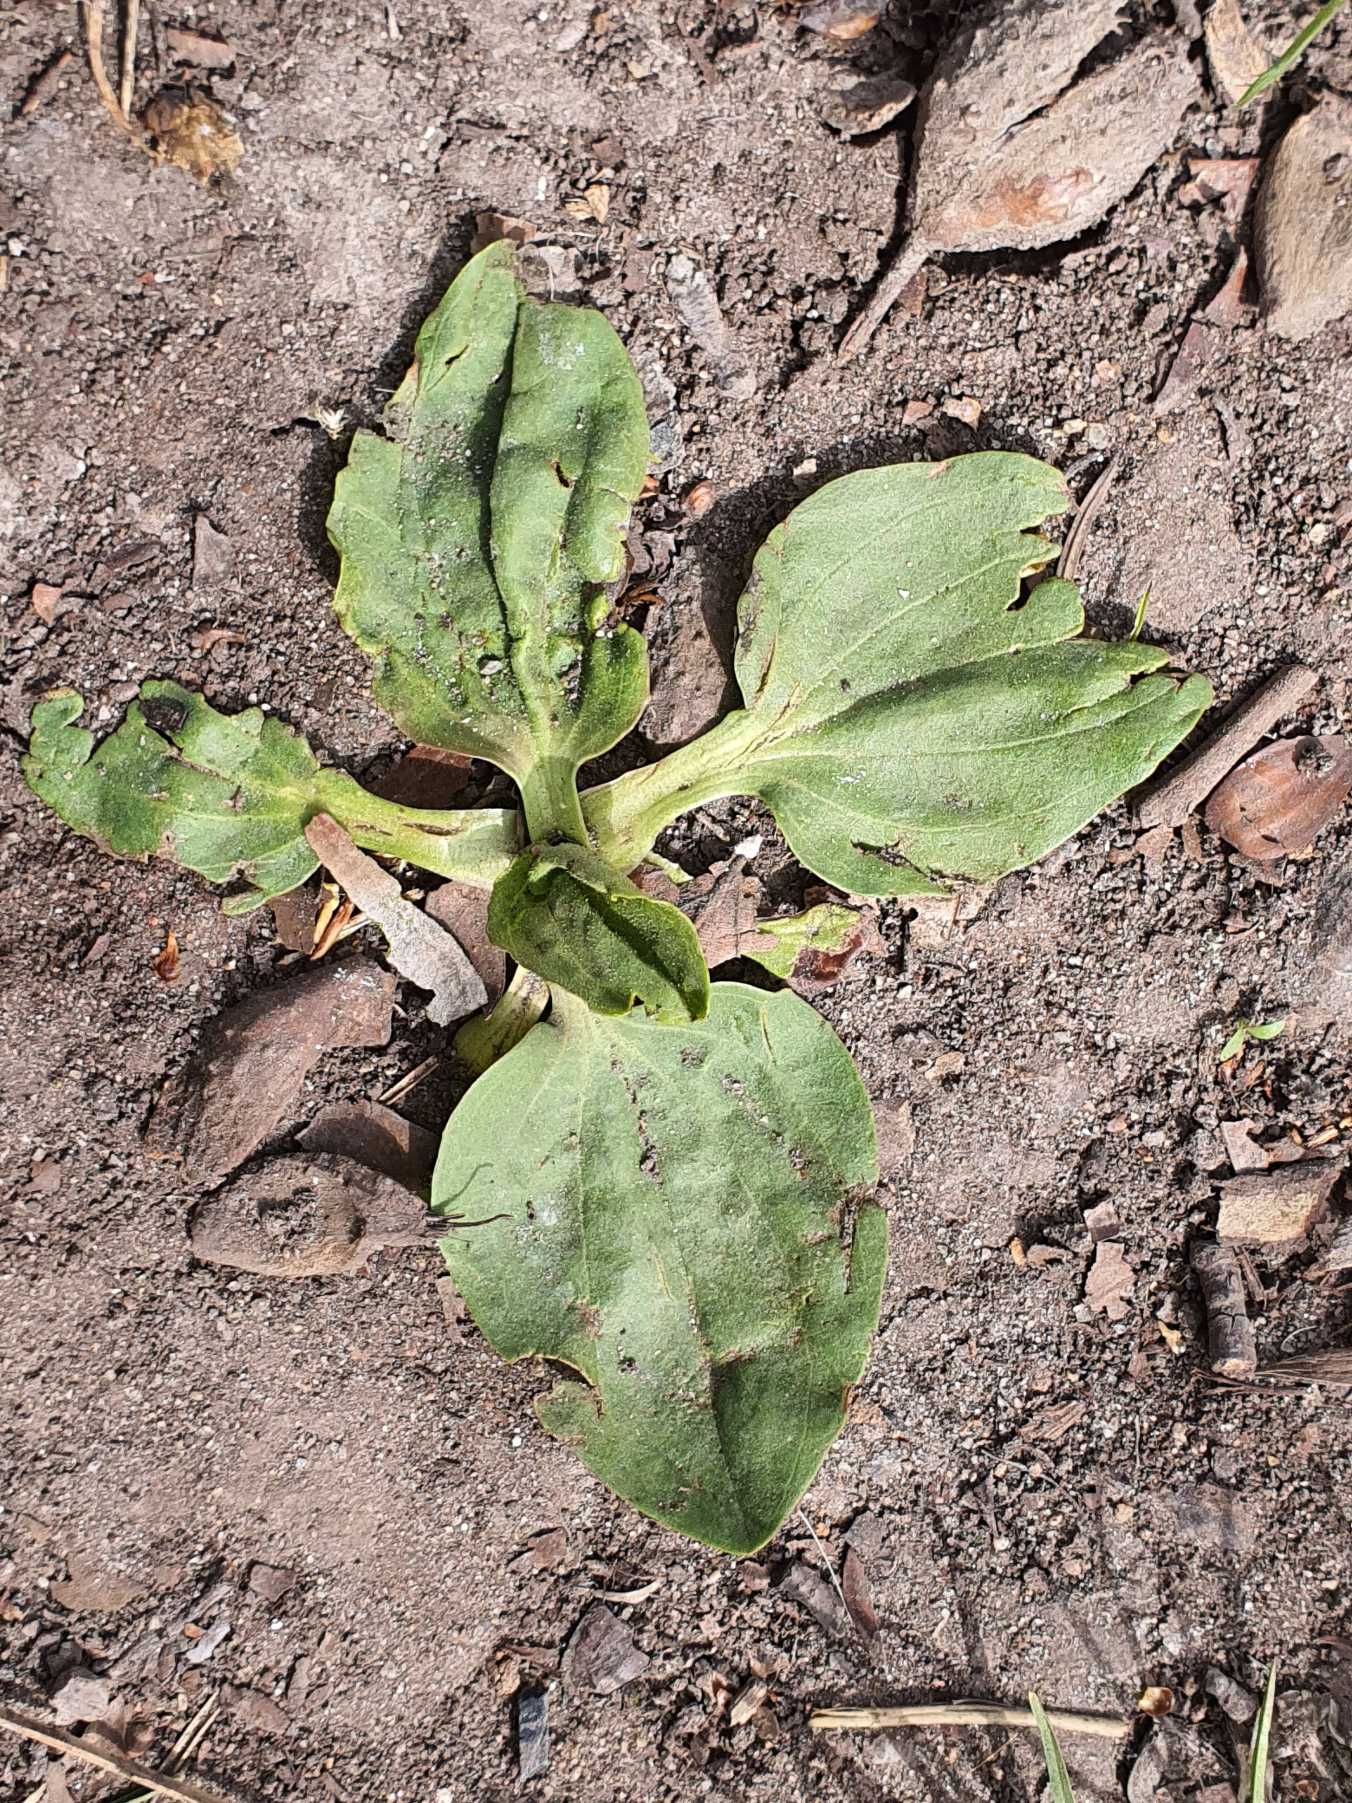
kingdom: Plantae
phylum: Tracheophyta
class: Magnoliopsida
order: Lamiales
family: Plantaginaceae
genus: Plantago
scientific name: Plantago major
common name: Glat vejbred
